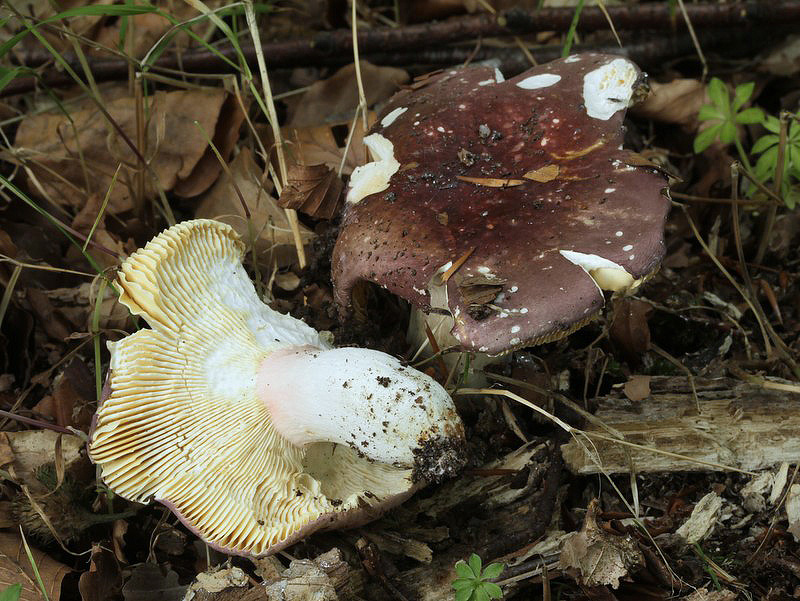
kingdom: Fungi
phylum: Basidiomycota
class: Agaricomycetes
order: Russulales
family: Russulaceae
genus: Russula
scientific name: Russula olivacea
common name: stor skørhat
